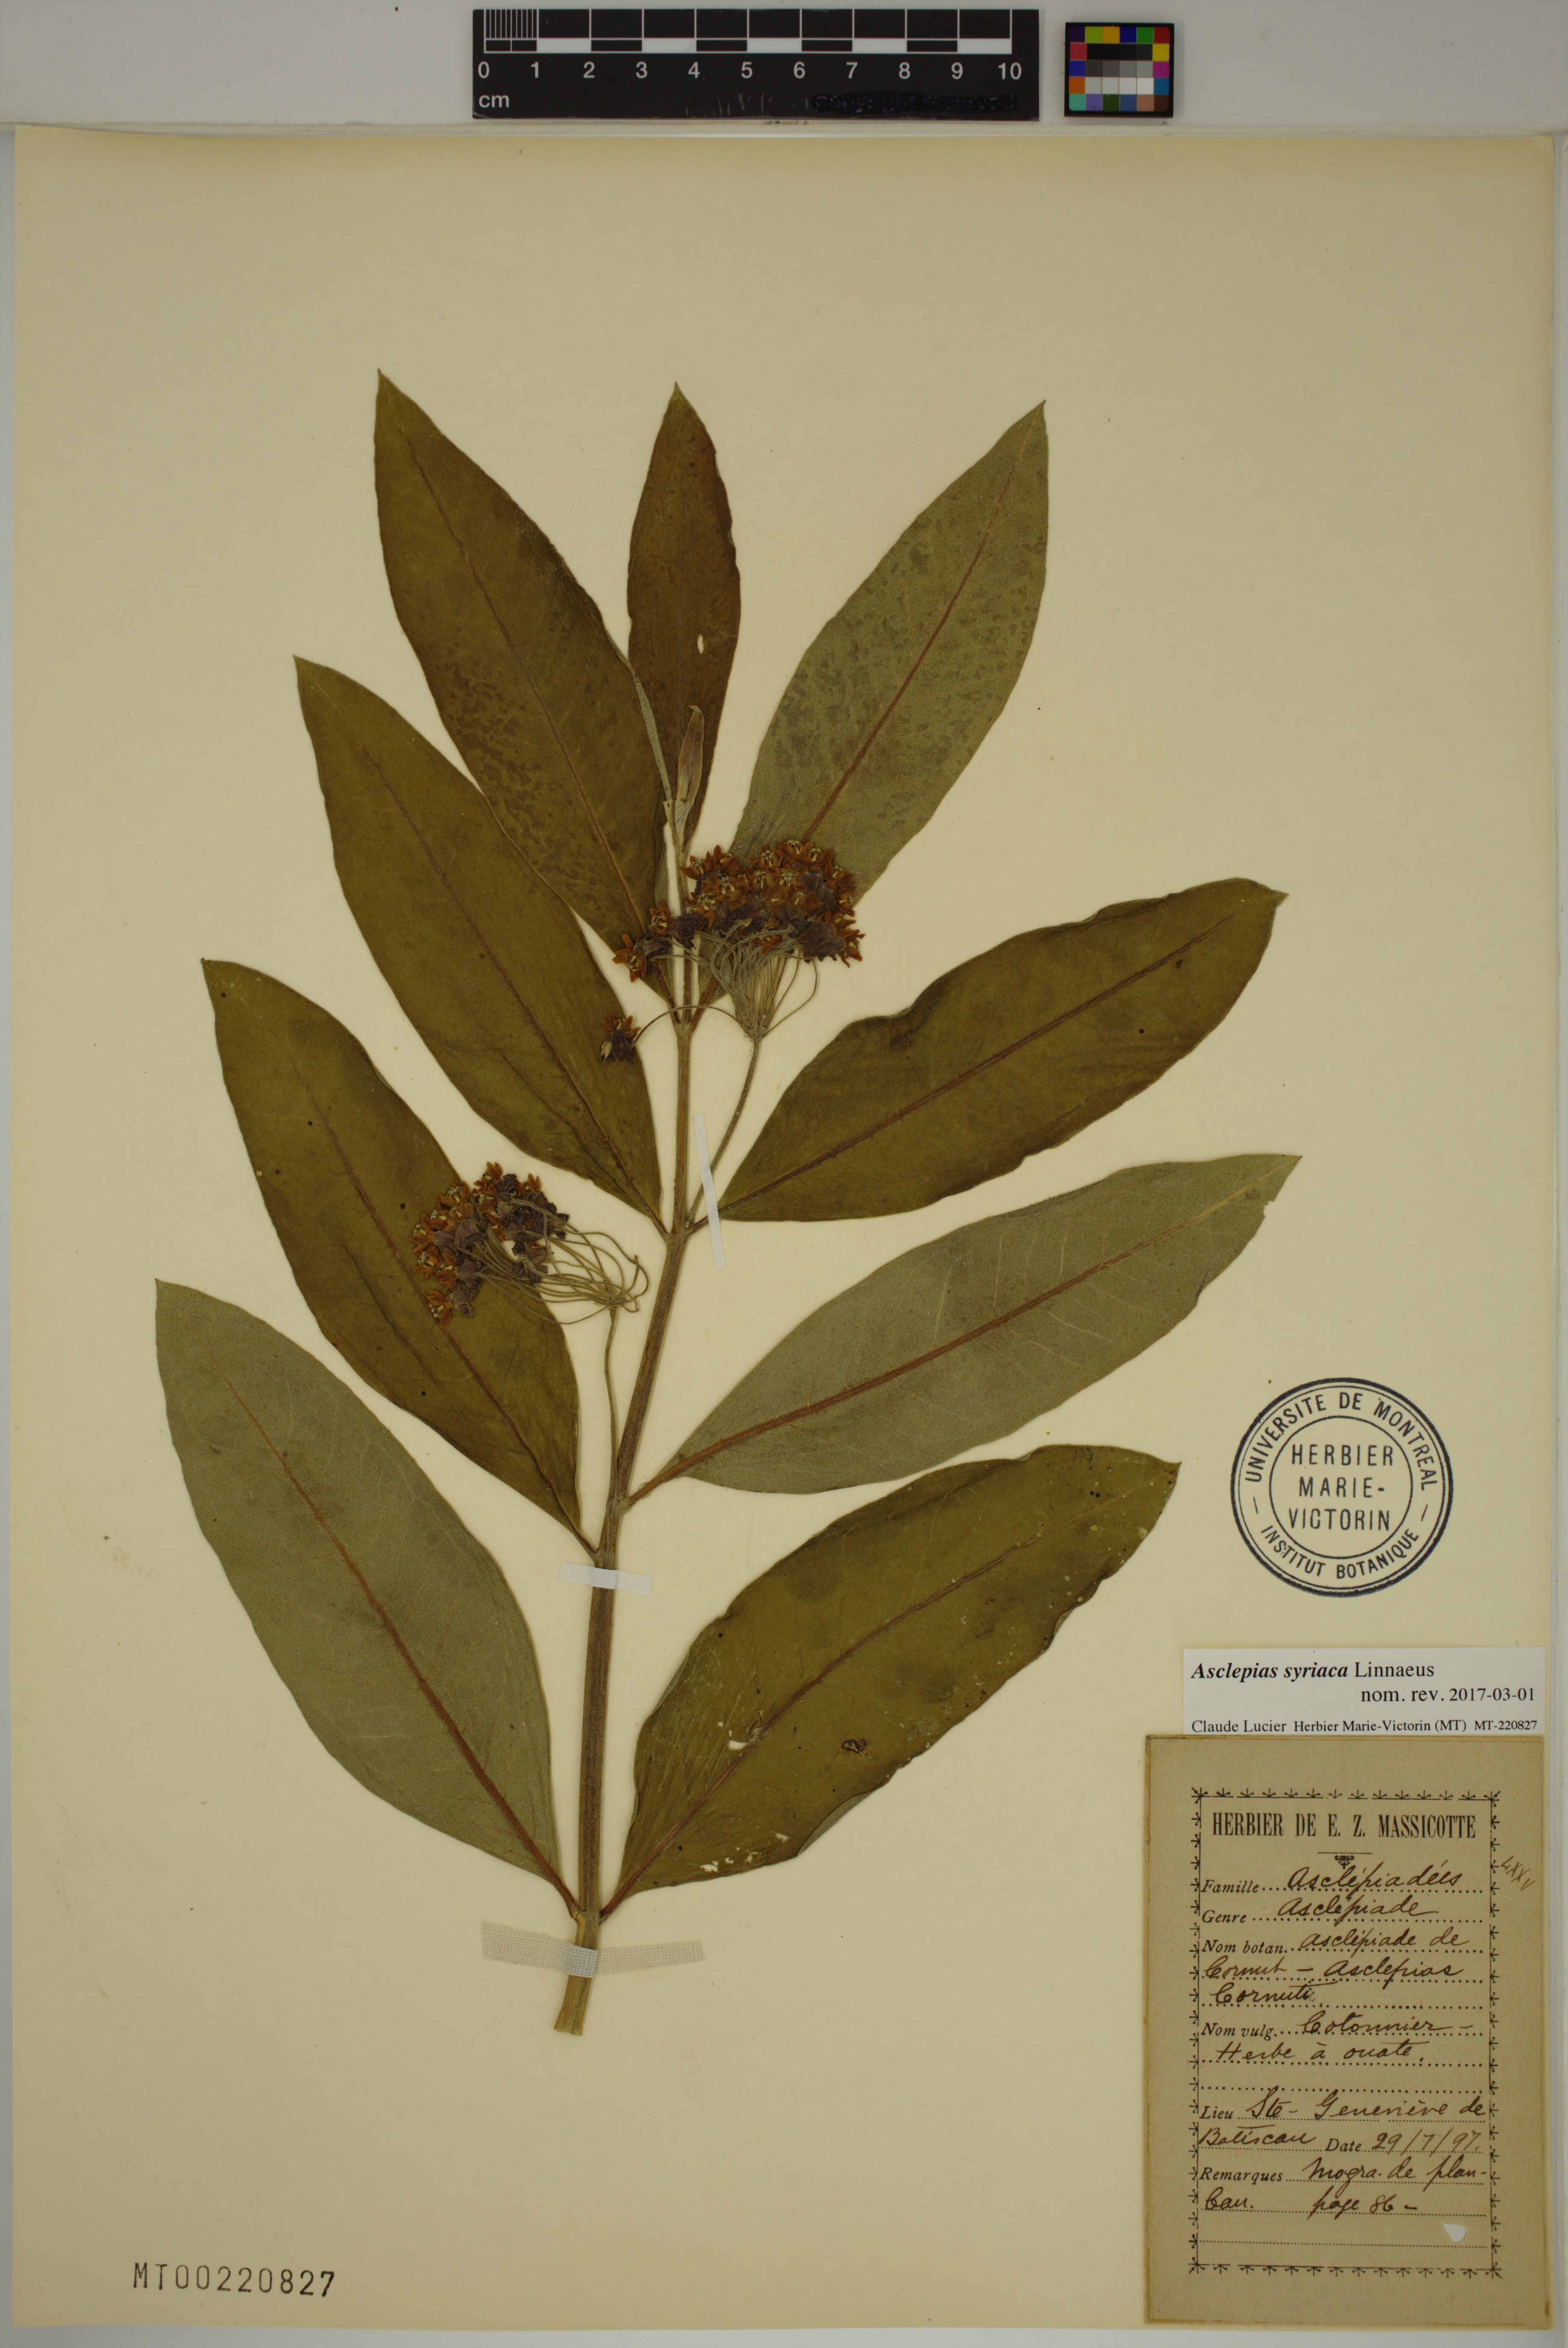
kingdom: Plantae
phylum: Tracheophyta
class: Magnoliopsida
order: Gentianales
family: Apocynaceae
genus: Asclepias
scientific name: Asclepias syriaca
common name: Common milkweed
